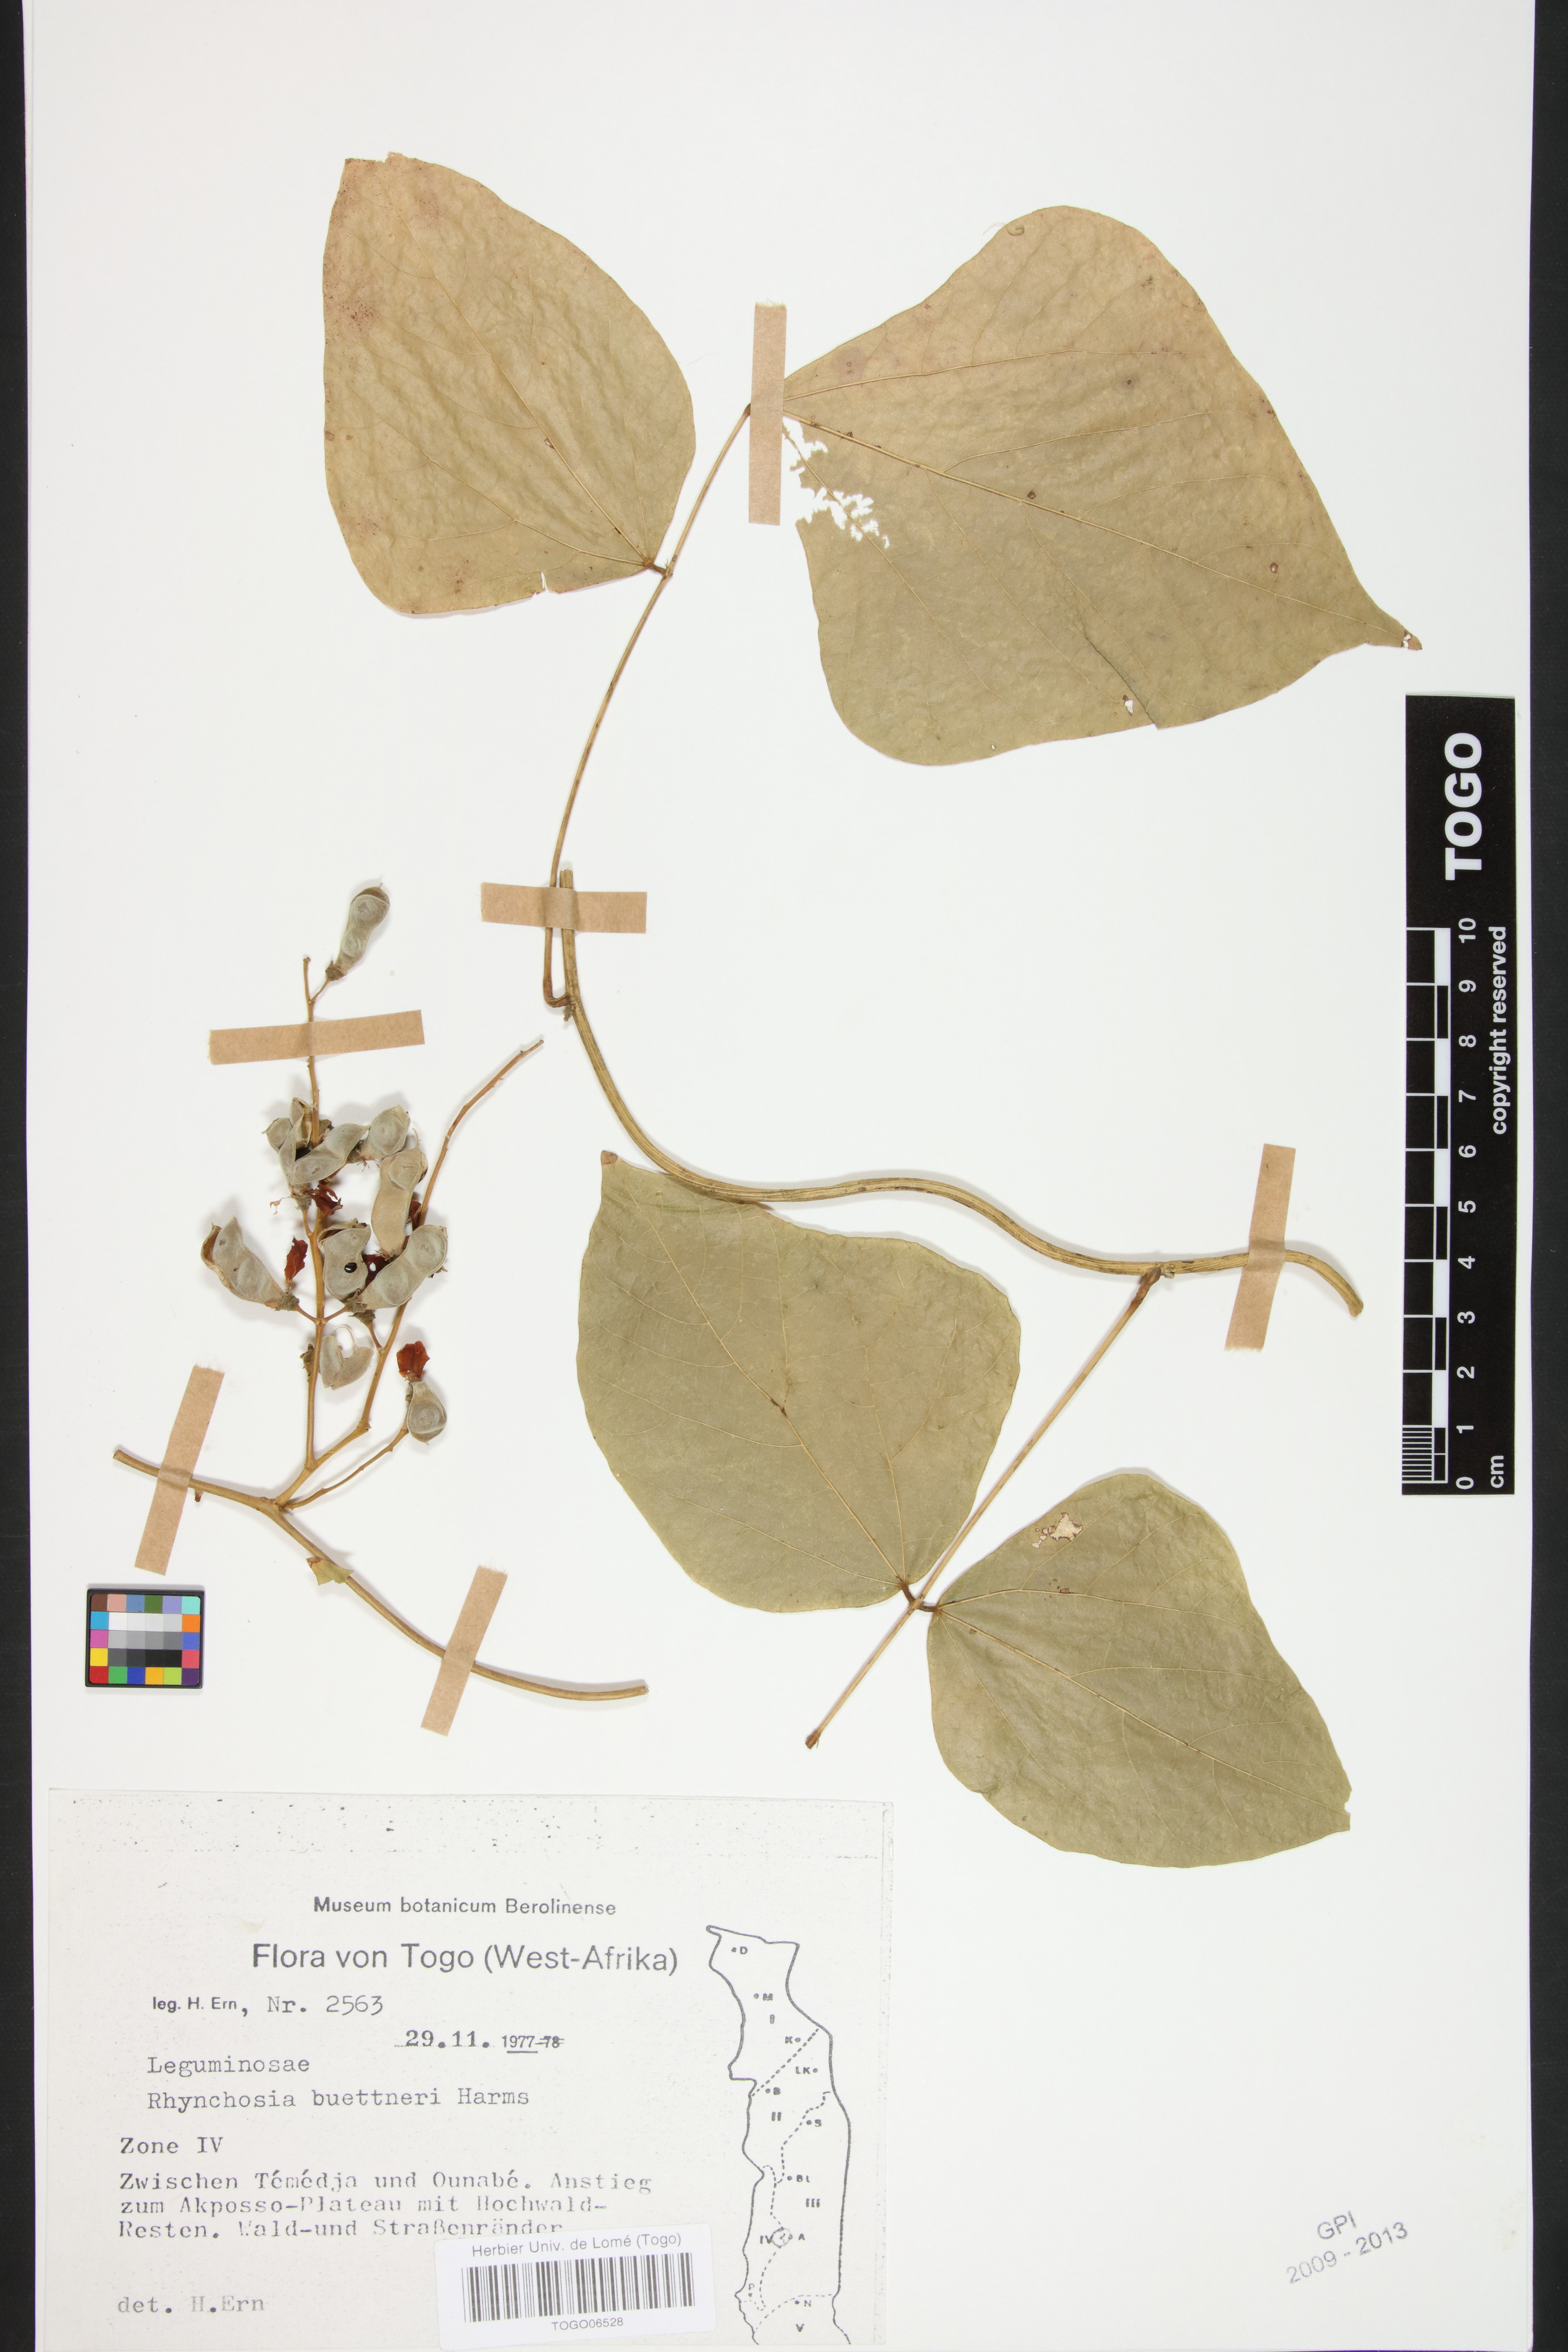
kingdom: Plantae
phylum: Tracheophyta
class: Magnoliopsida
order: Fabales
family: Fabaceae
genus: Rhynchosia
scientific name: Rhynchosia buettneri
